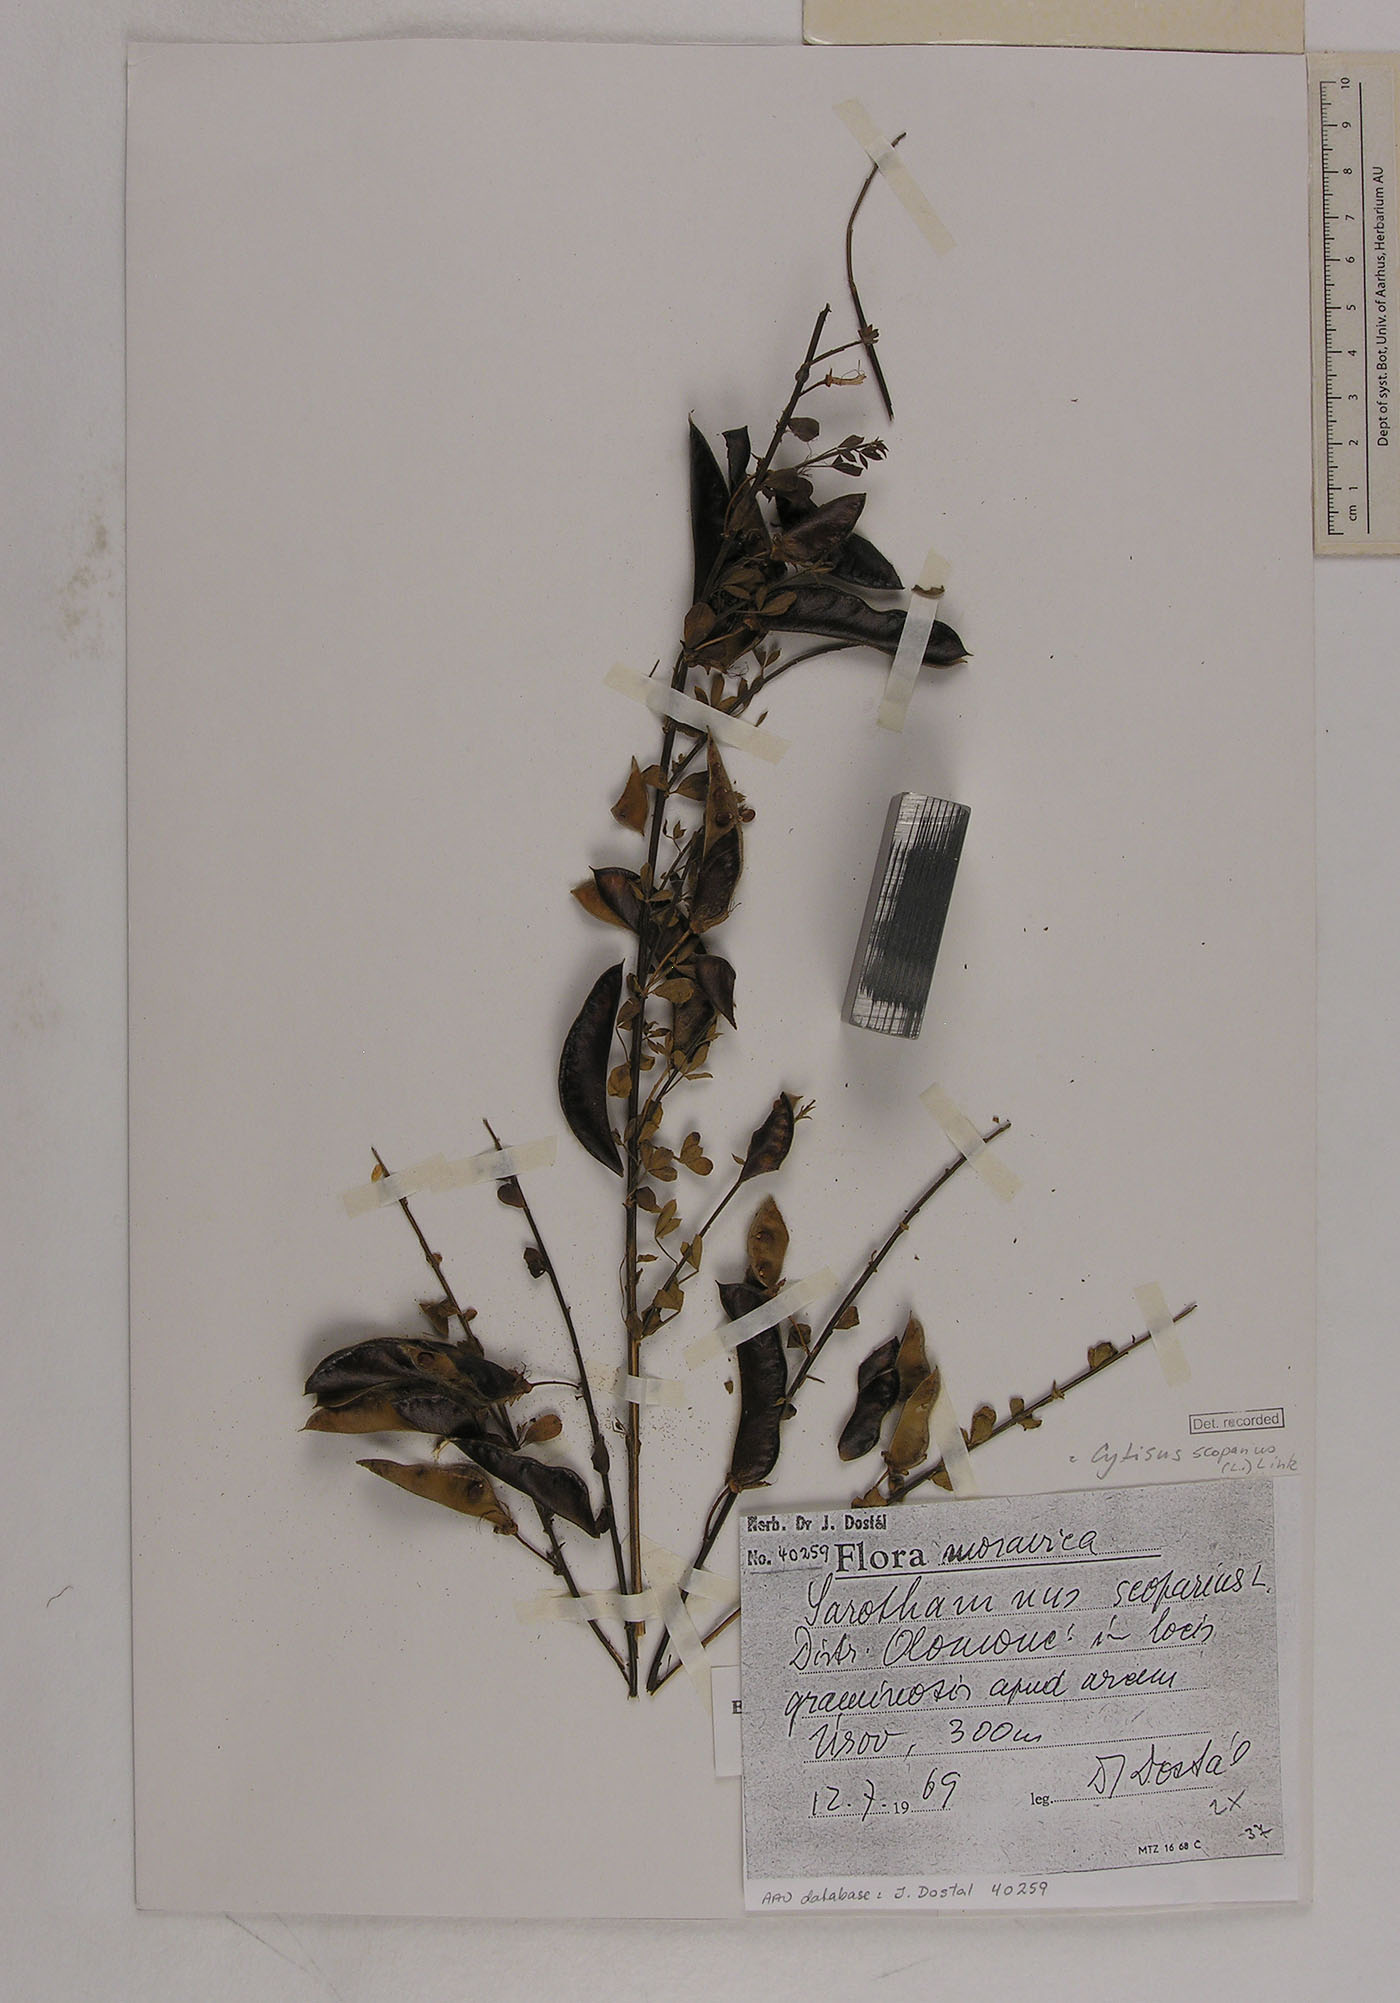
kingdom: Plantae
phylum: Tracheophyta
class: Magnoliopsida
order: Fabales
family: Fabaceae
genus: Cytisus
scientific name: Cytisus scoparius
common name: Scotch broom
